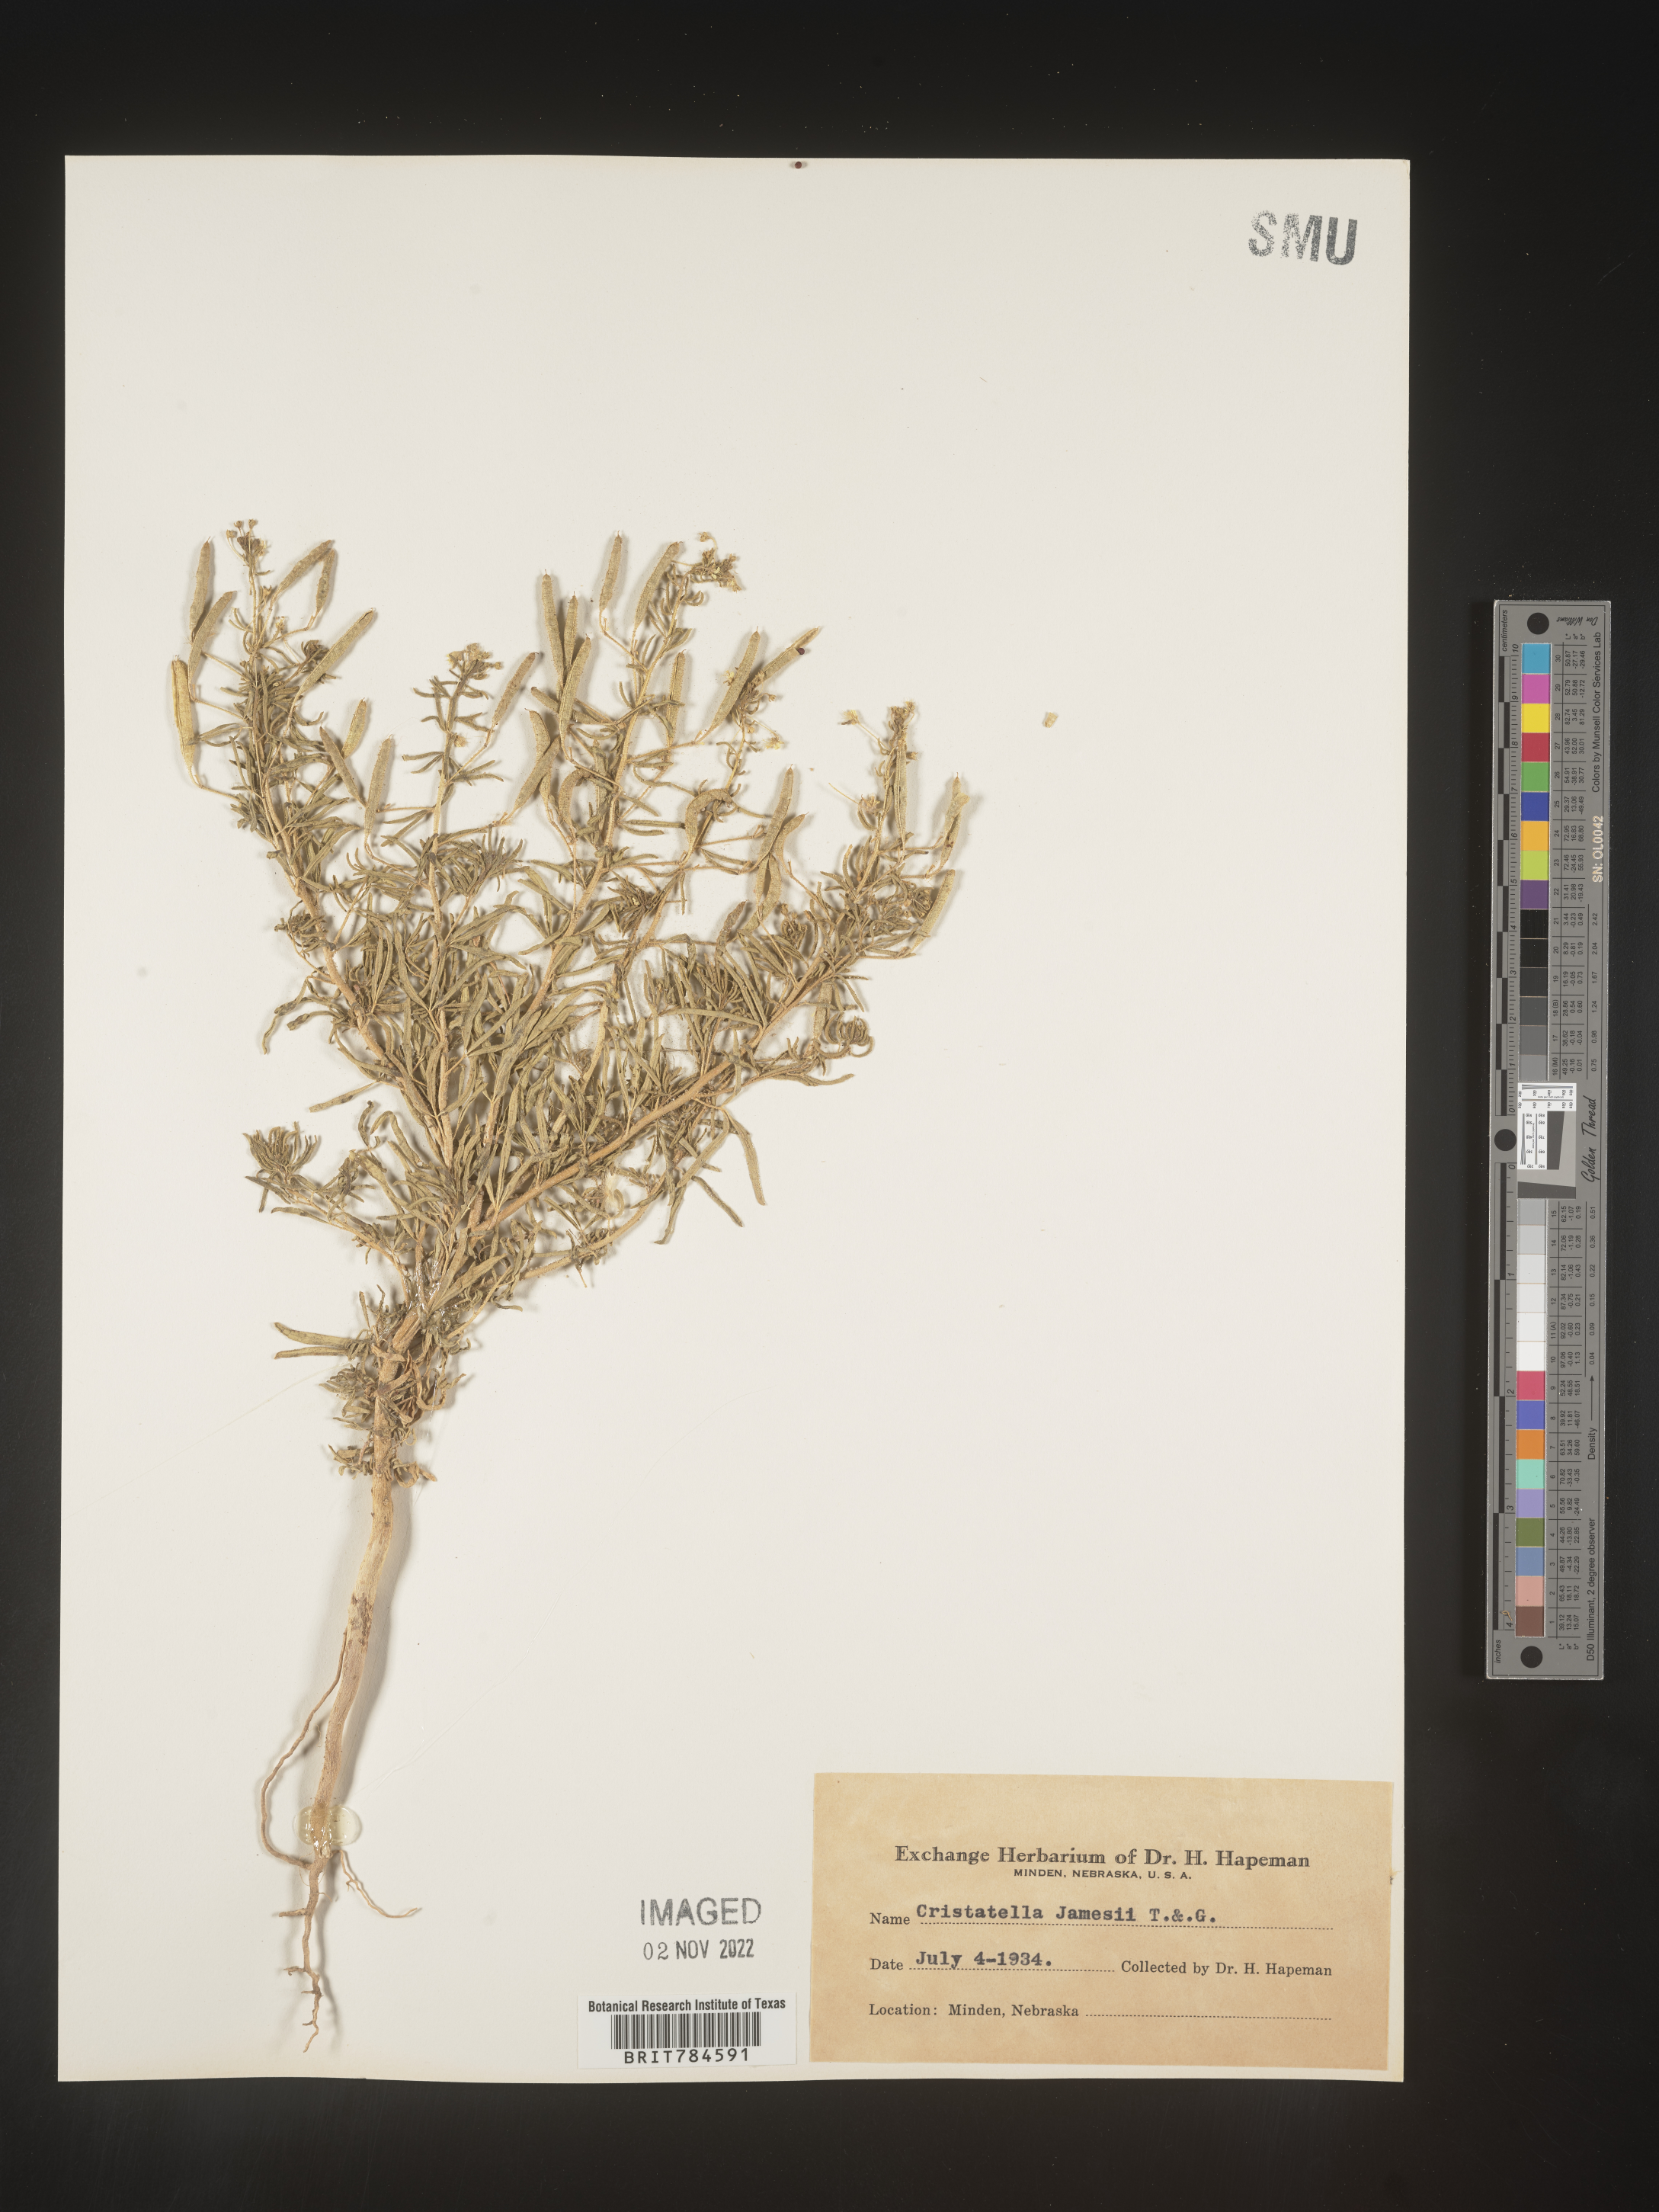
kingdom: Plantae
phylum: Tracheophyta
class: Magnoliopsida
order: Brassicales
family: Cleomaceae
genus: Polanisia
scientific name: Polanisia
